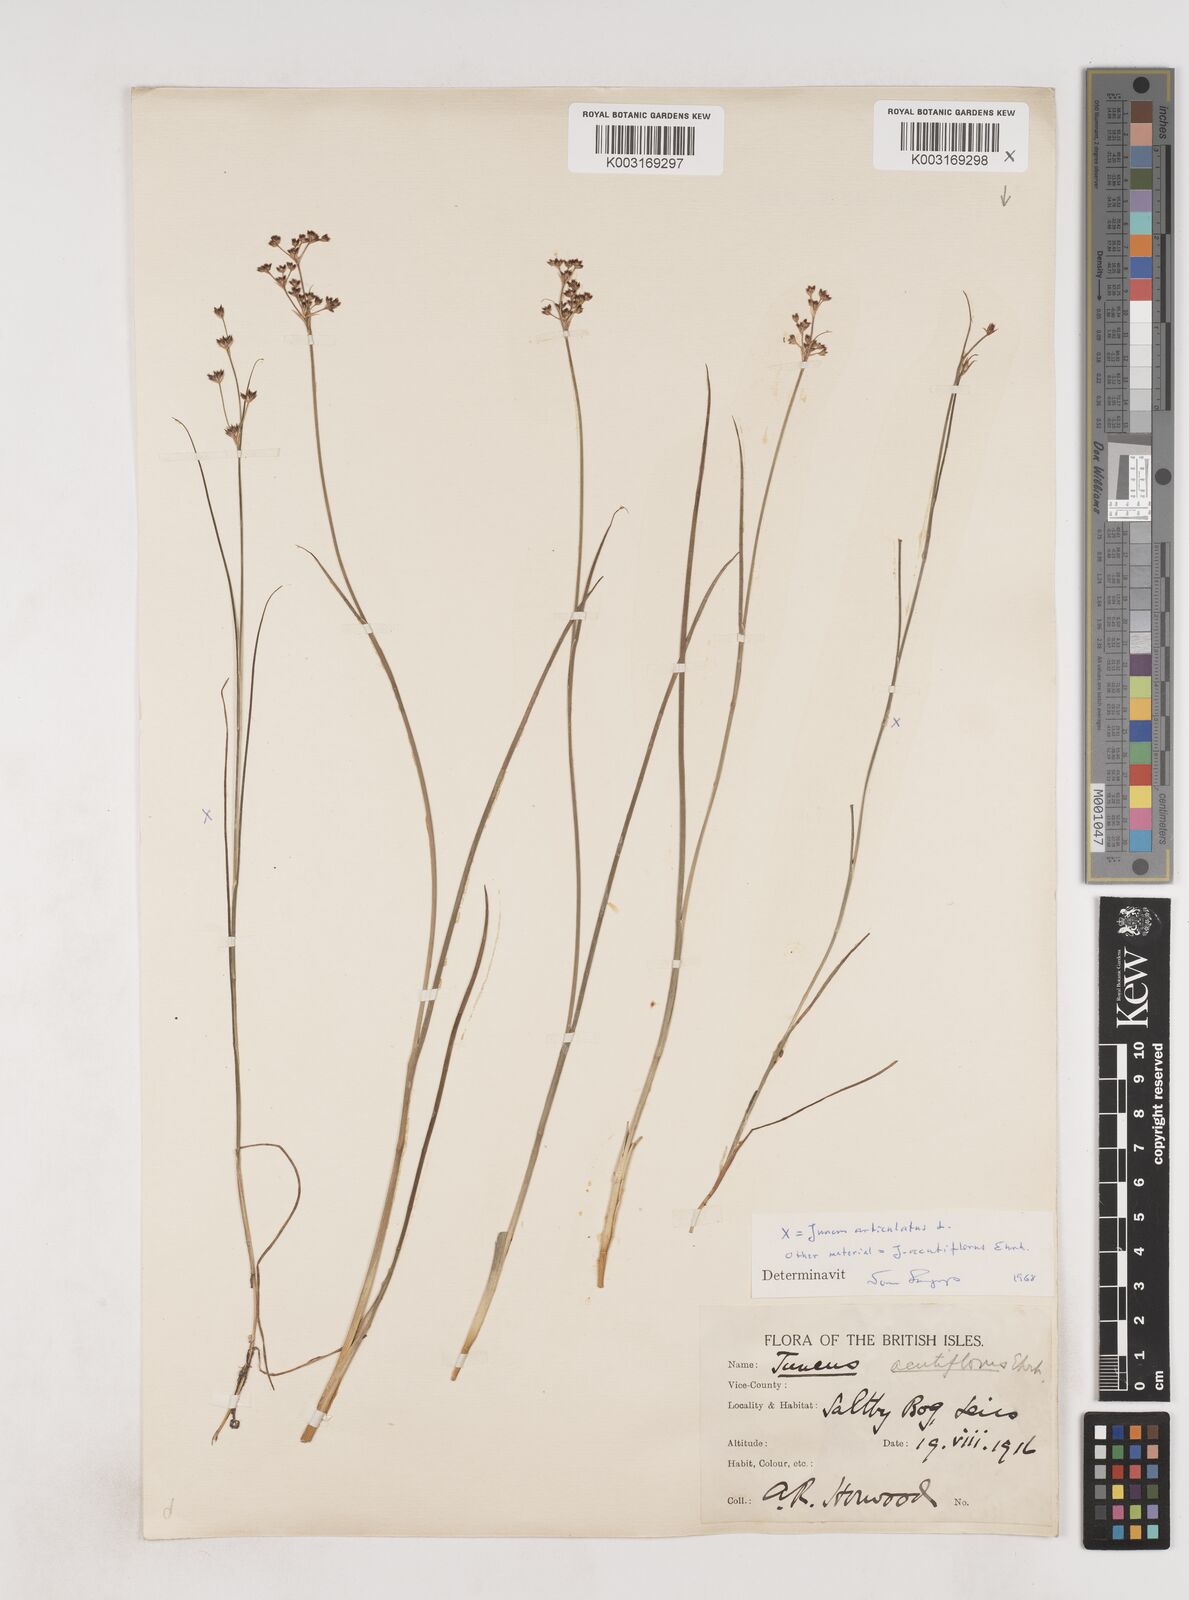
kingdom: Plantae
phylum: Tracheophyta
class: Liliopsida
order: Poales
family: Juncaceae
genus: Juncus
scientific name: Juncus acutiflorus
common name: Sharp-flowered rush
